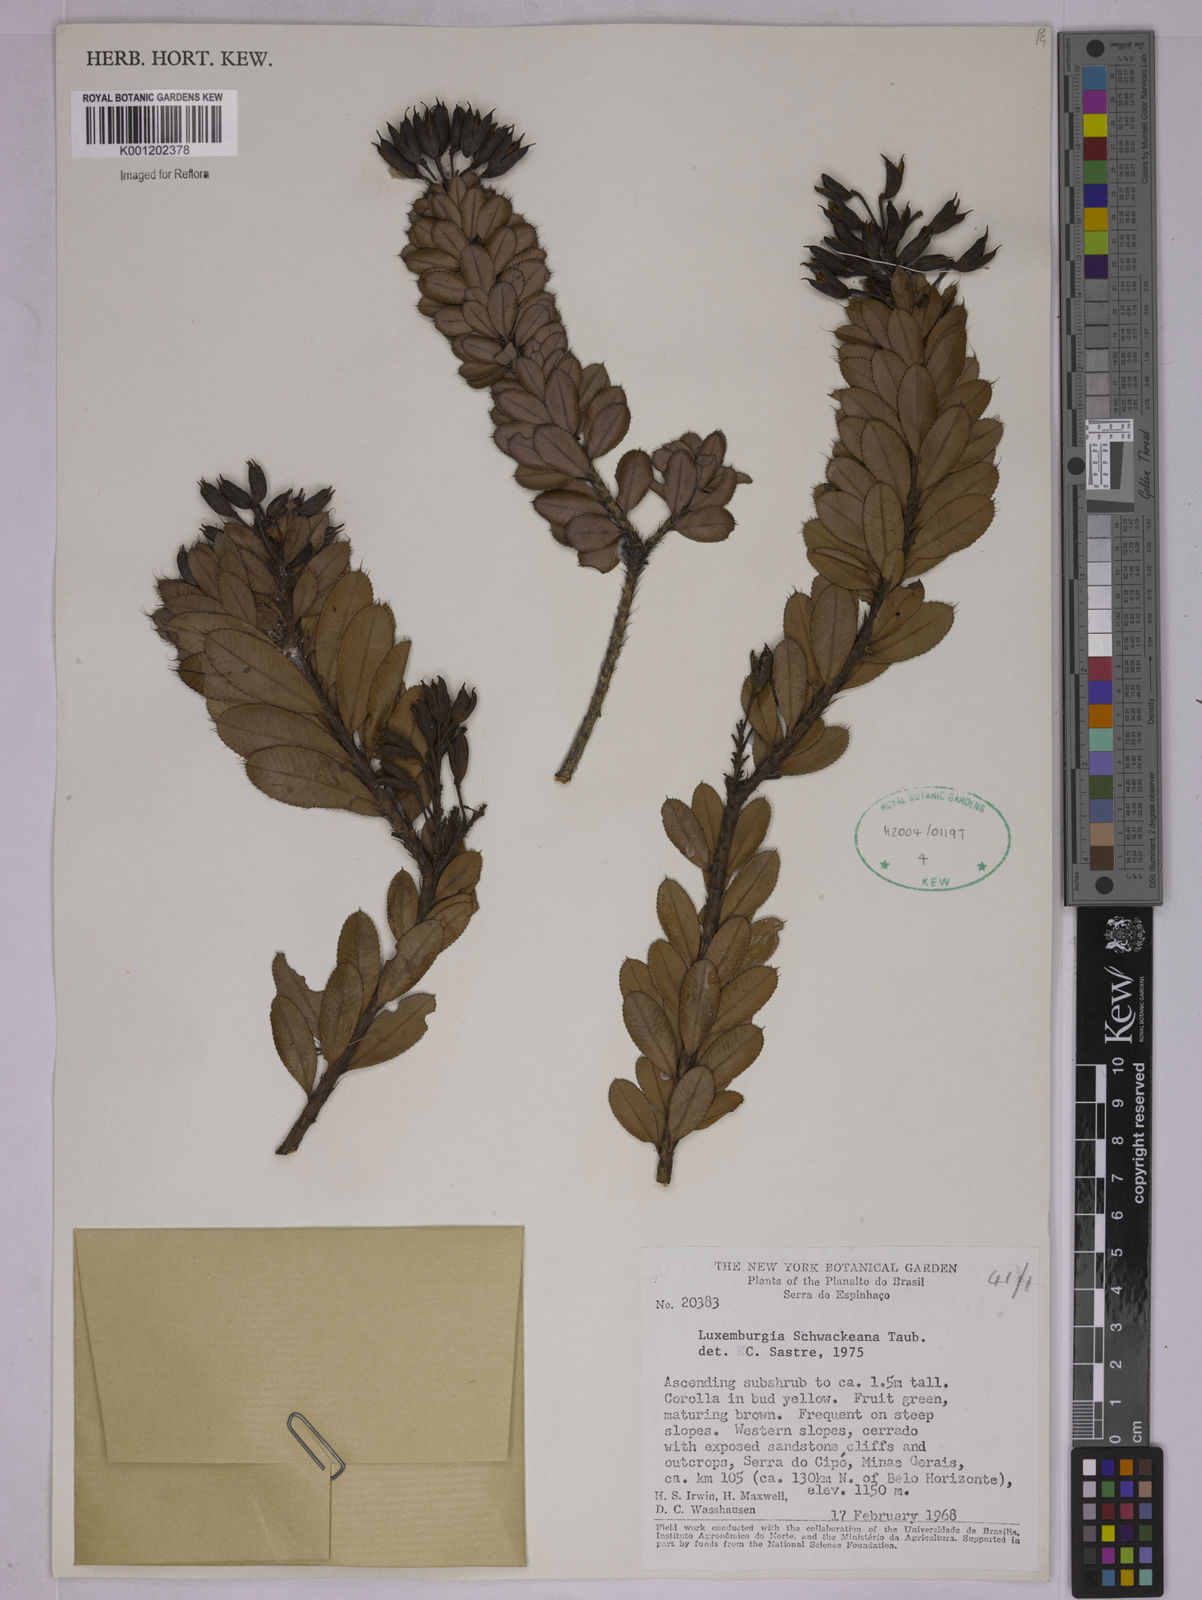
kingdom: Plantae
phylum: Tracheophyta
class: Magnoliopsida
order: Malpighiales
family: Ochnaceae
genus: Luxemburgia
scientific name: Luxemburgia schwackeana
